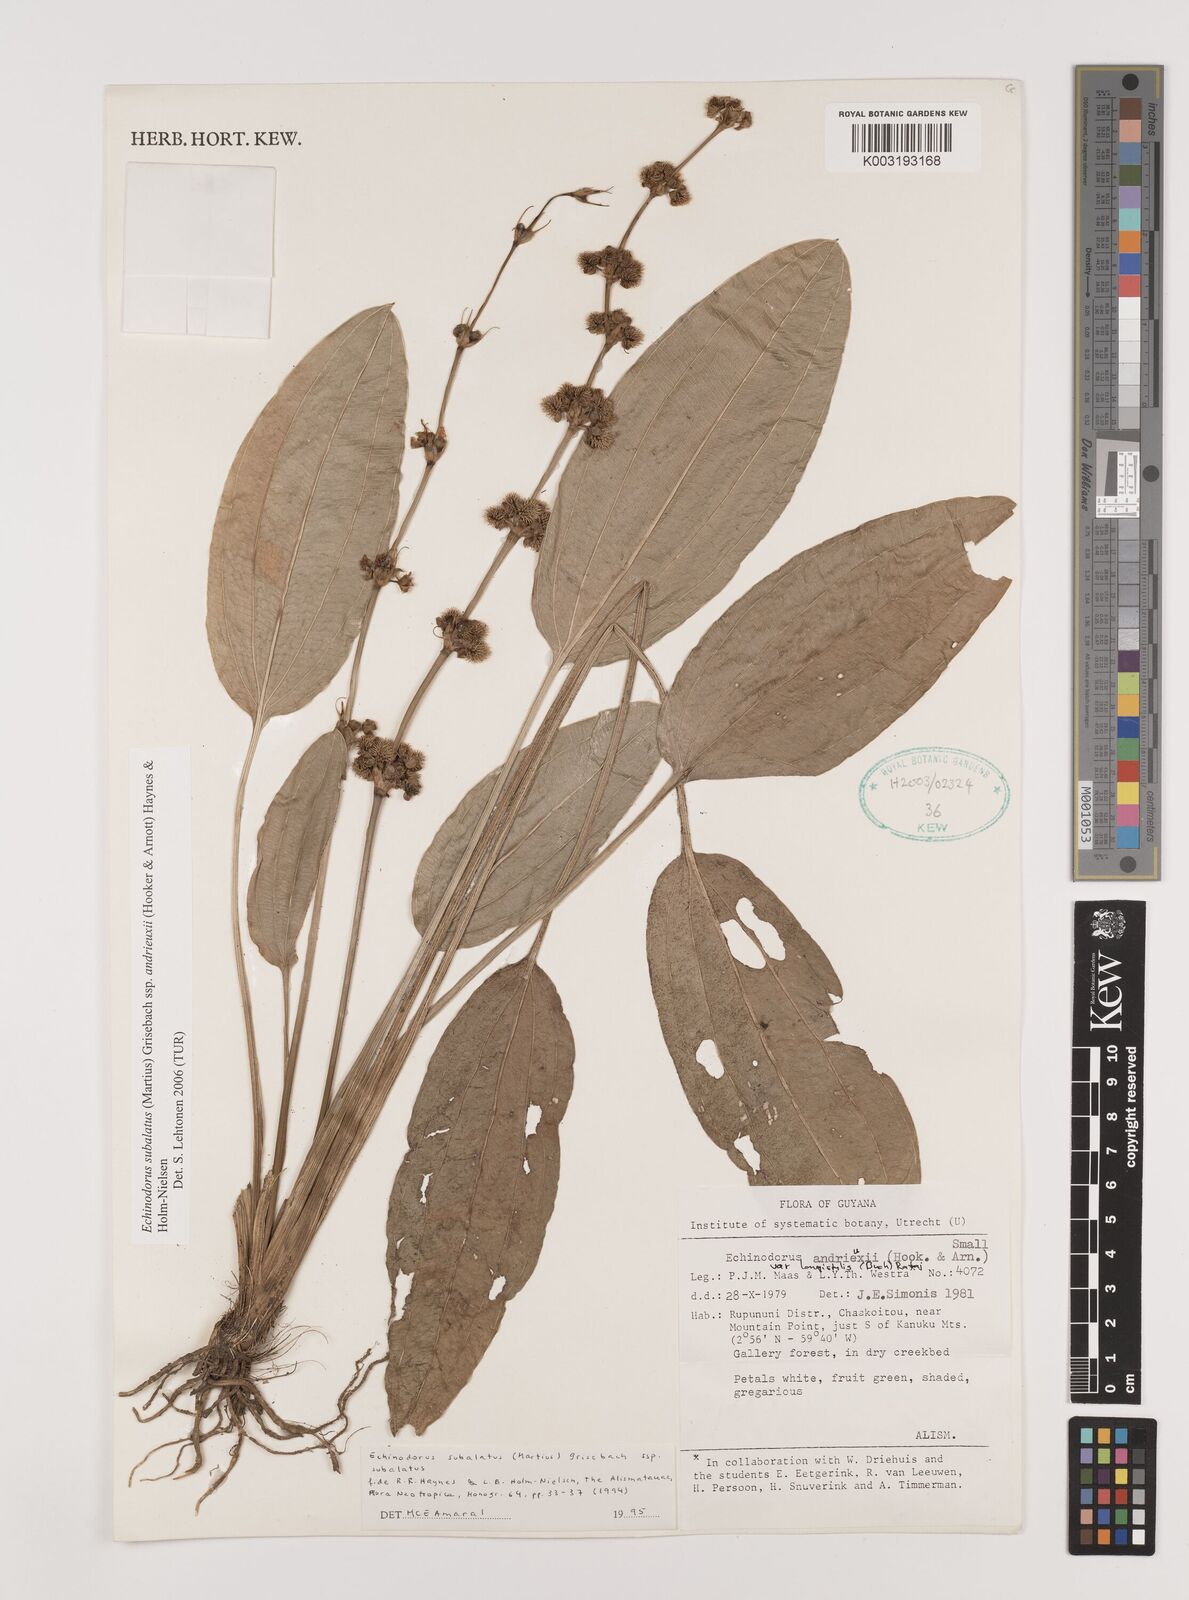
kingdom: Plantae
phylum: Tracheophyta
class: Liliopsida
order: Alismatales
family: Alismataceae
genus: Aquarius
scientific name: Aquarius subulatus
